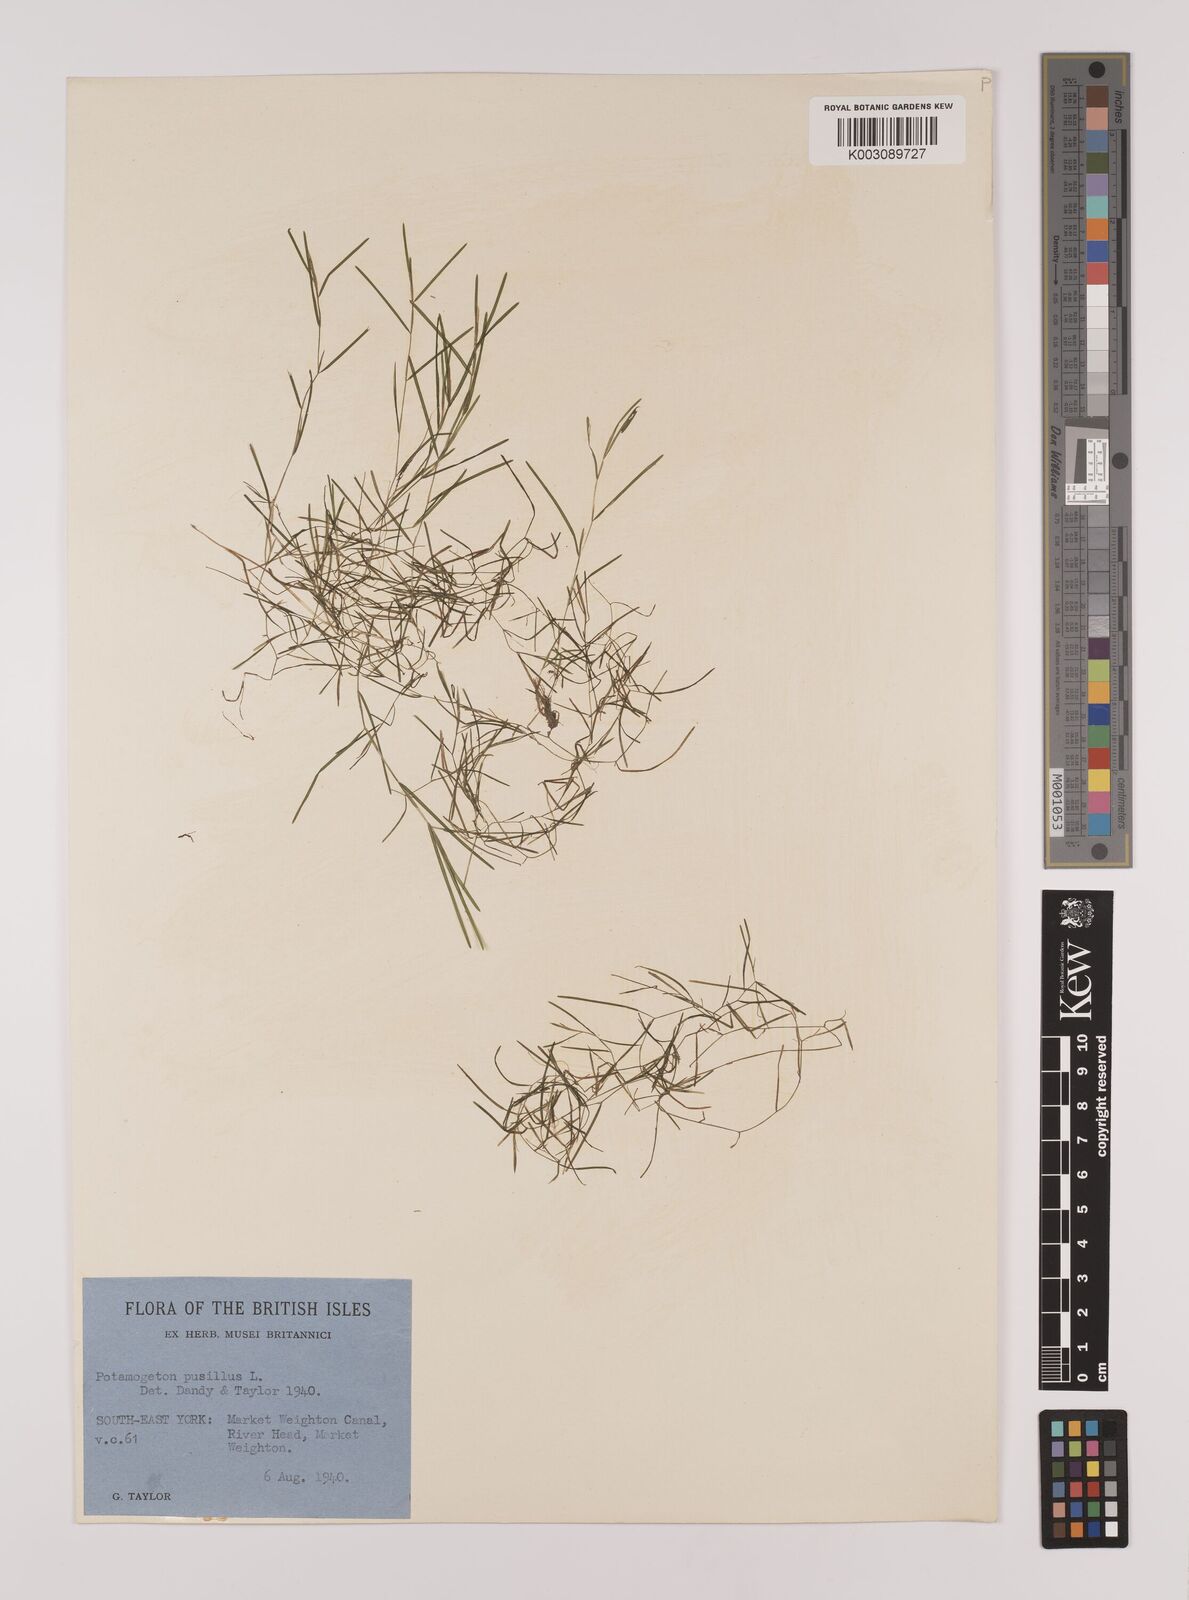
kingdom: Plantae
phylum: Tracheophyta
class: Liliopsida
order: Alismatales
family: Potamogetonaceae
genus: Stuckenia
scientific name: Stuckenia pectinata
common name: Sago pondweed
